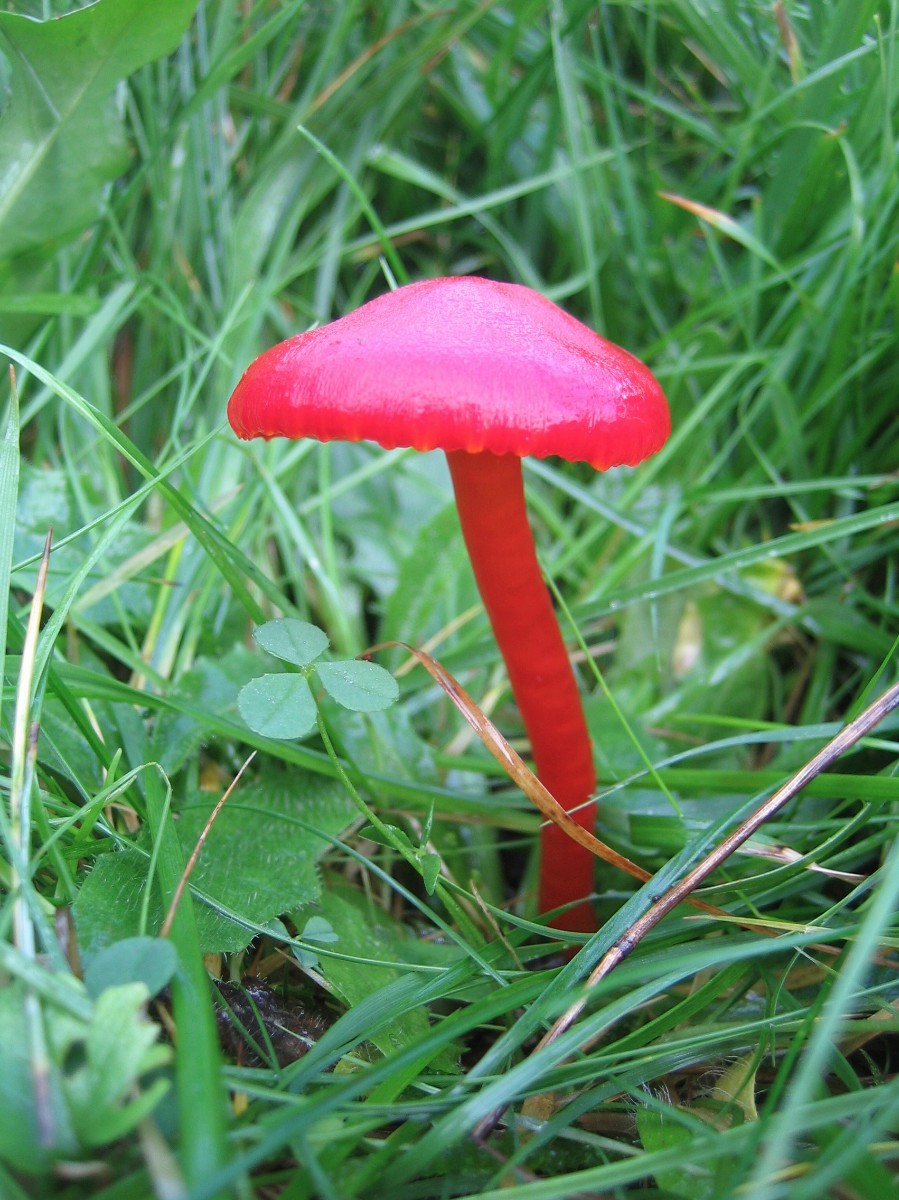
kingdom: Fungi
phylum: Basidiomycota
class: Agaricomycetes
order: Agaricales
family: Hygrophoraceae
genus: Hygrocybe
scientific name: Hygrocybe coccinea
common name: cinnober-vokshat
